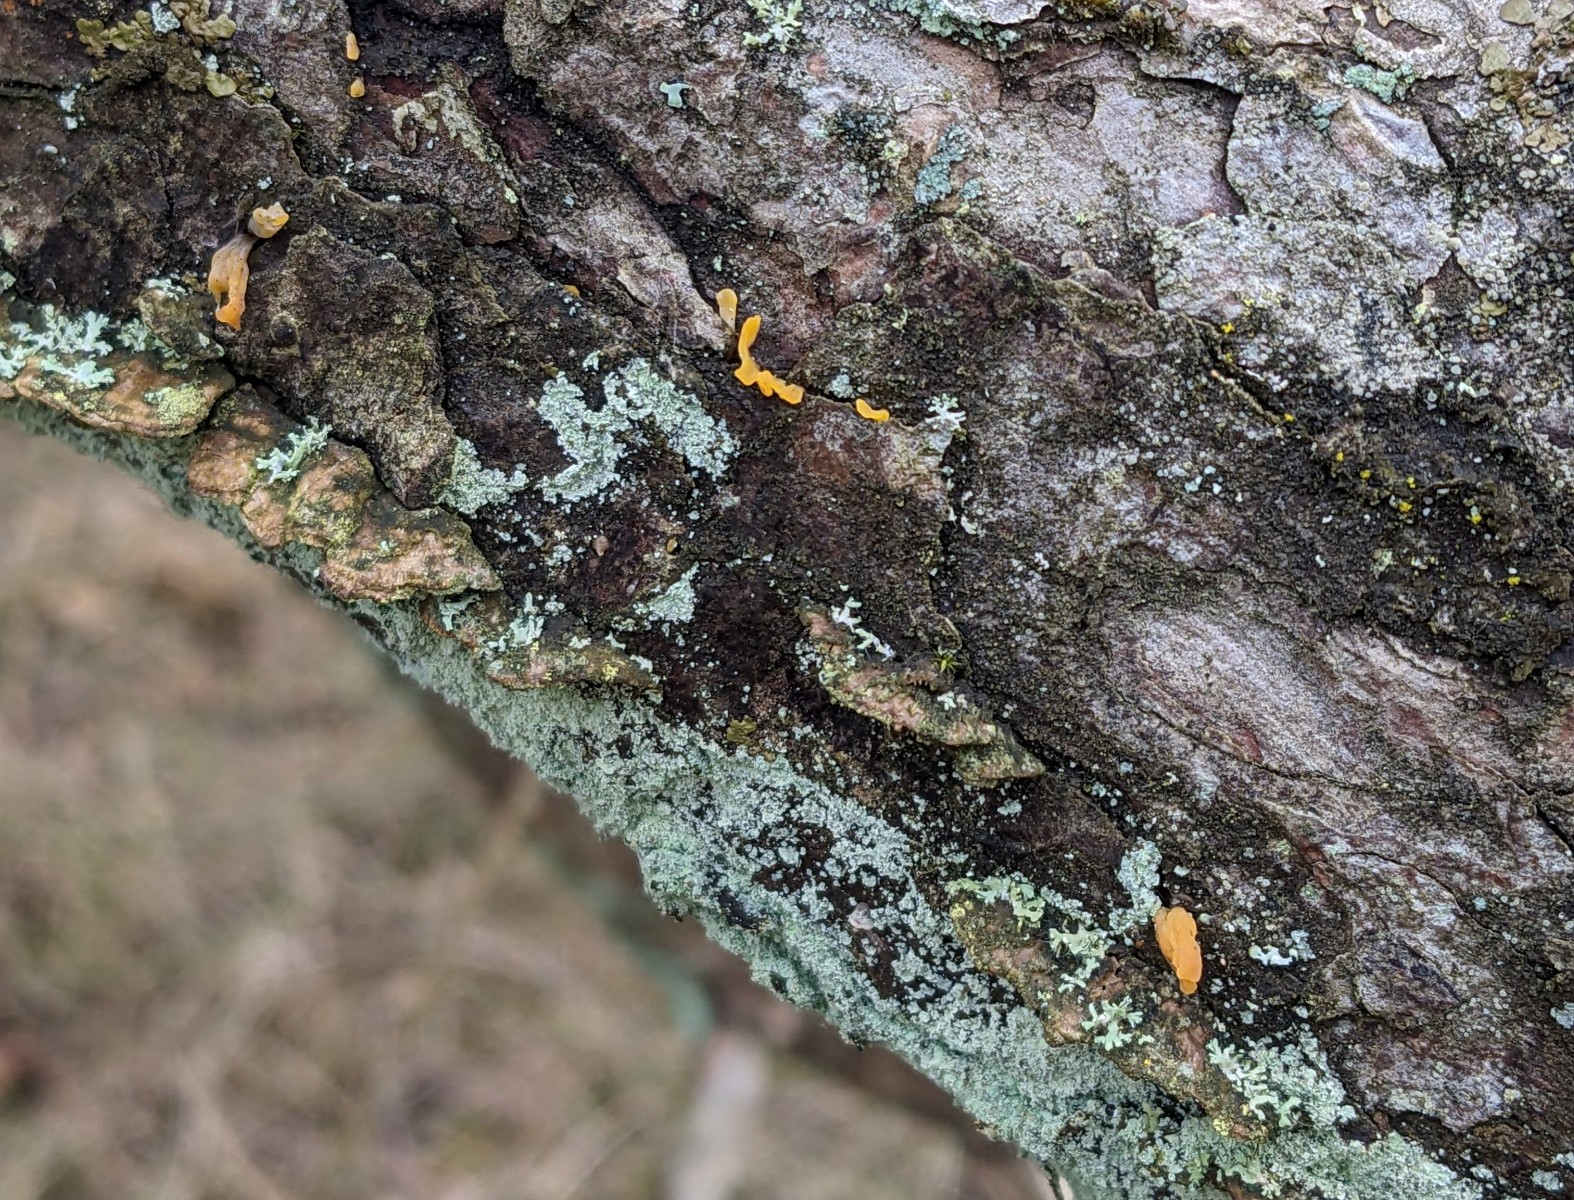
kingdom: Fungi
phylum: Basidiomycota
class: Dacrymycetes
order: Dacrymycetales
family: Dacrymycetaceae
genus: Calocera
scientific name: Calocera furcata
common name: fyrre-guldgaffel
